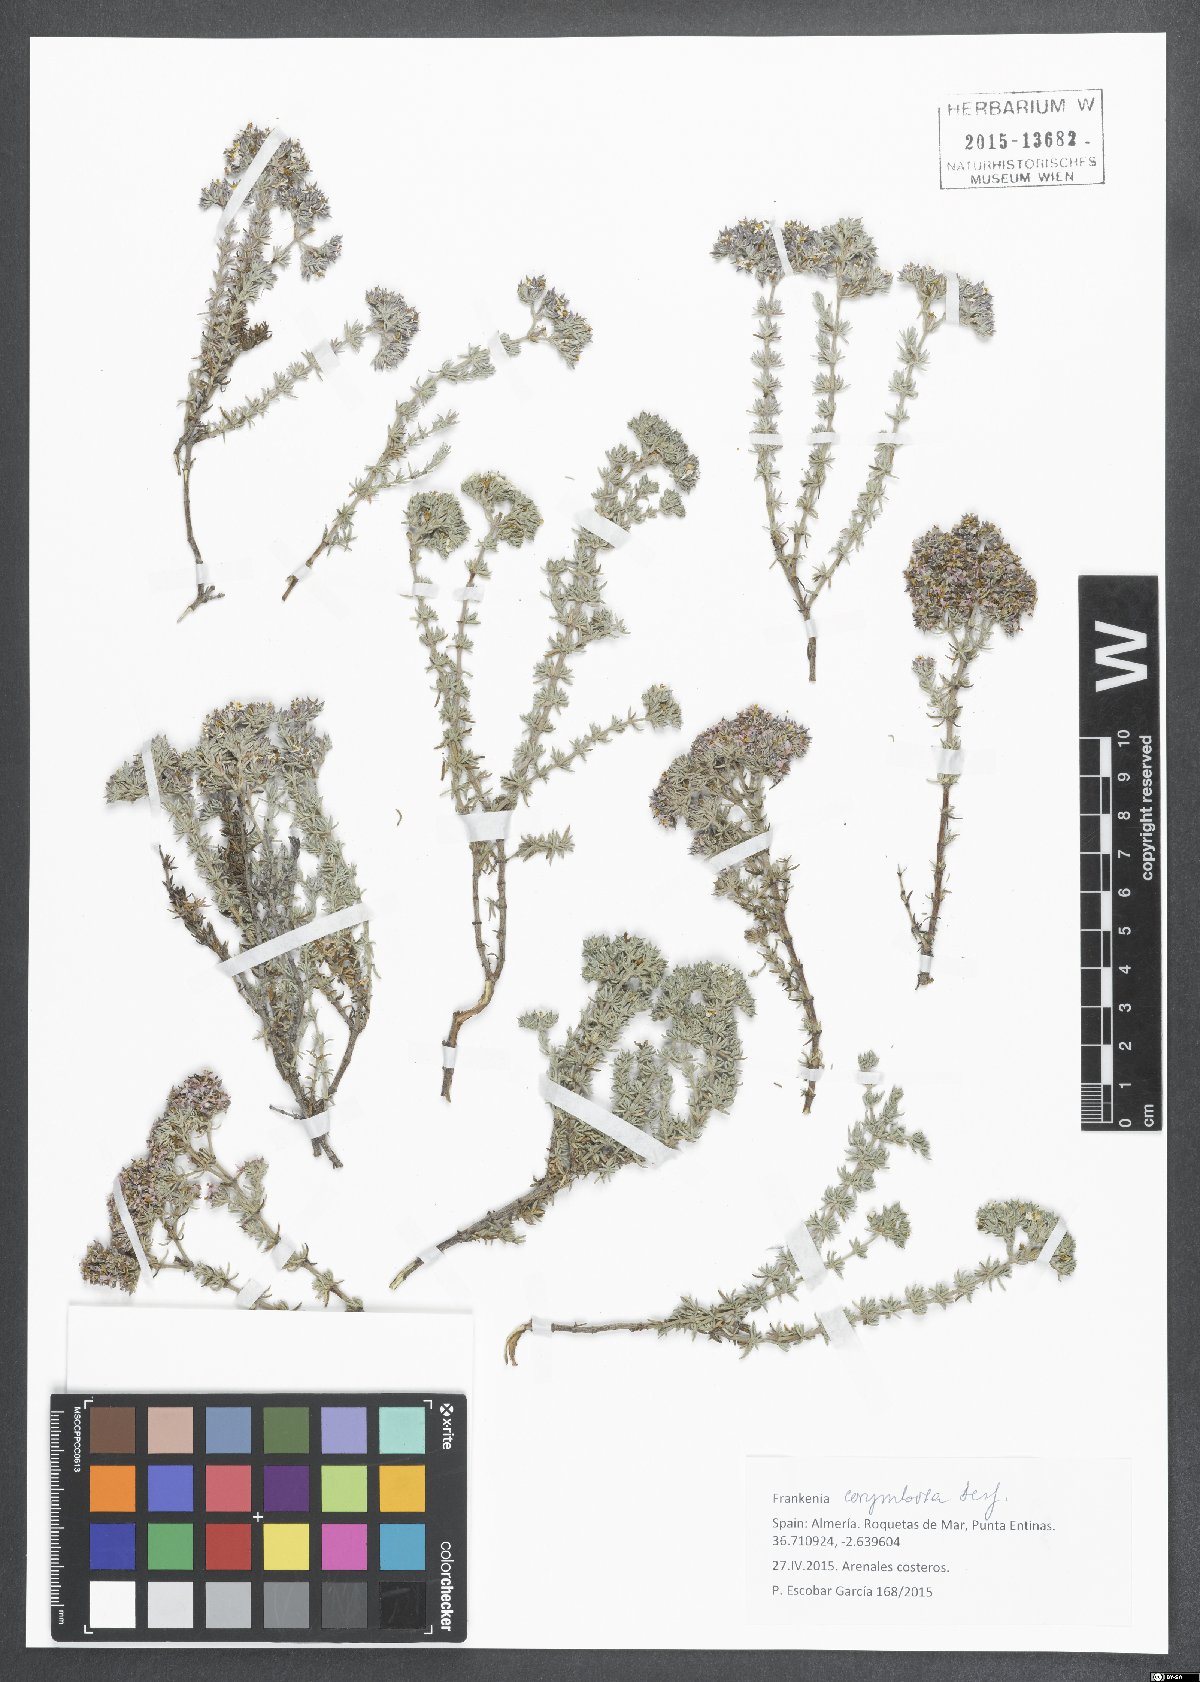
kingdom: Plantae
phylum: Tracheophyta
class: Magnoliopsida
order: Caryophyllales
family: Frankeniaceae
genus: Frankenia
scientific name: Frankenia corymbosa
